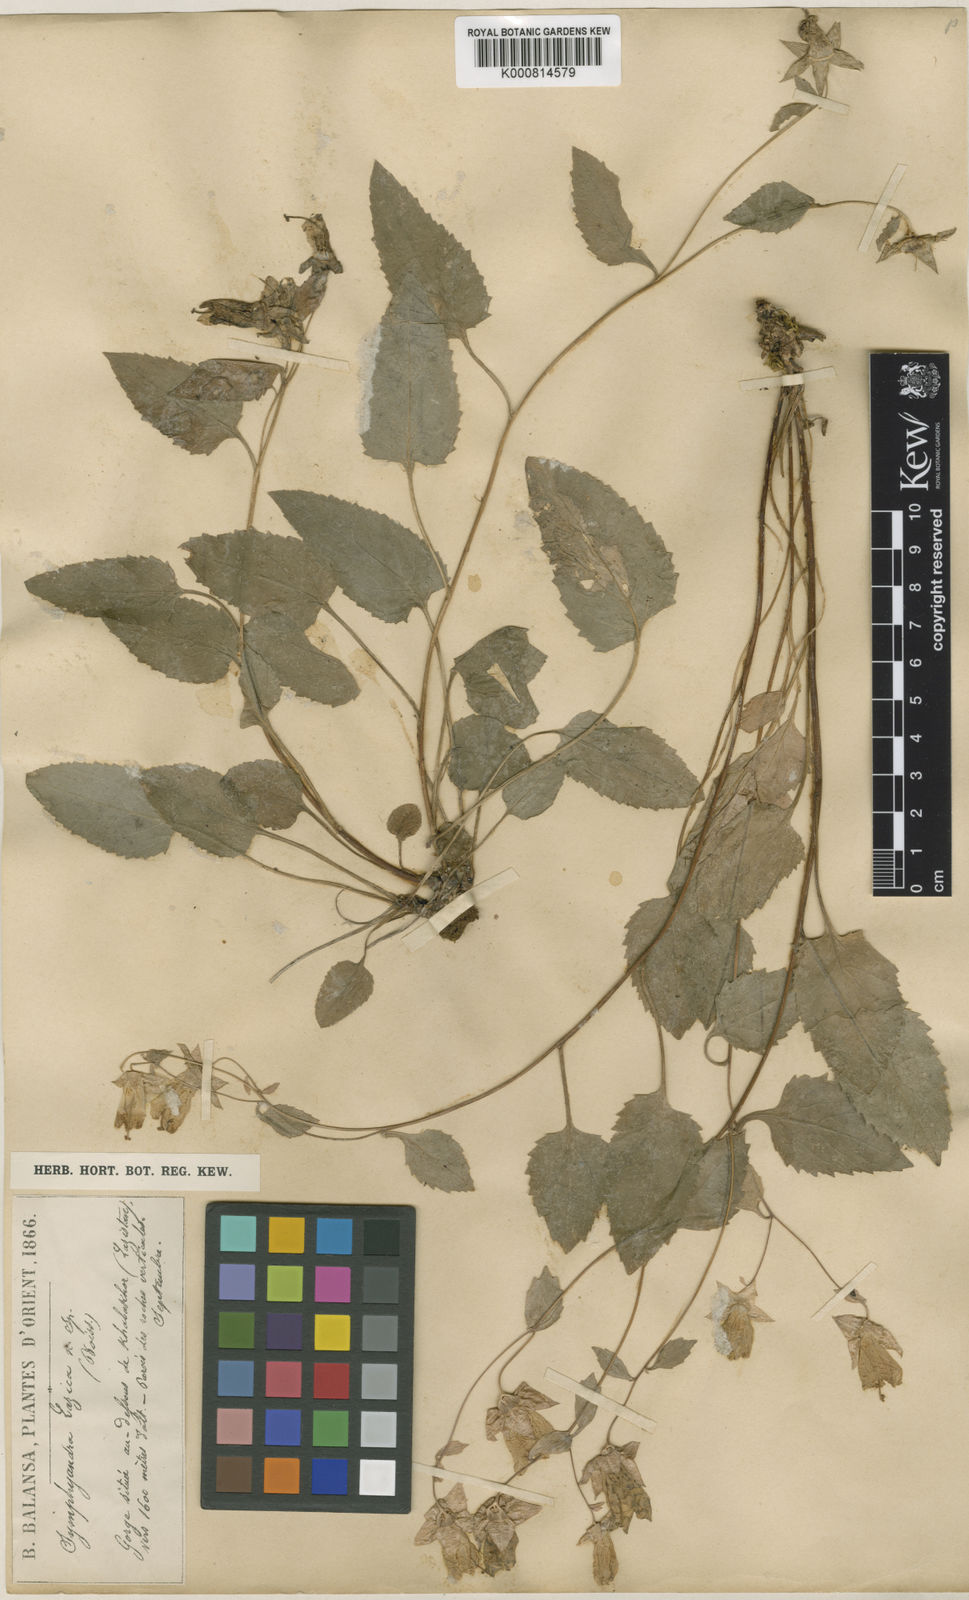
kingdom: Plantae
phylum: Tracheophyta
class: Magnoliopsida
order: Asterales
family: Campanulaceae
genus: Campanula
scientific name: Campanula lazica
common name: Lazian campanula
